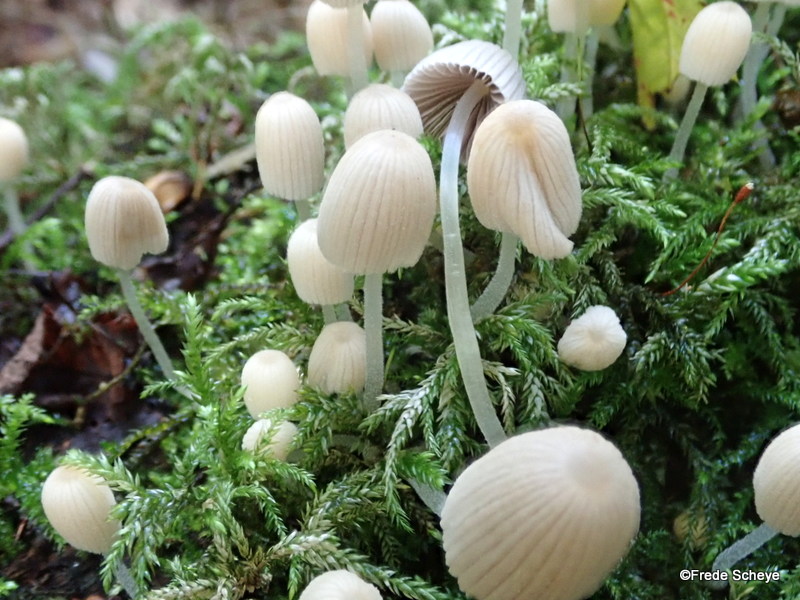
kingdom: Fungi
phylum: Basidiomycota
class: Agaricomycetes
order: Agaricales
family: Psathyrellaceae
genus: Coprinellus
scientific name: Coprinellus disseminatus
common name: bredsået blækhat
